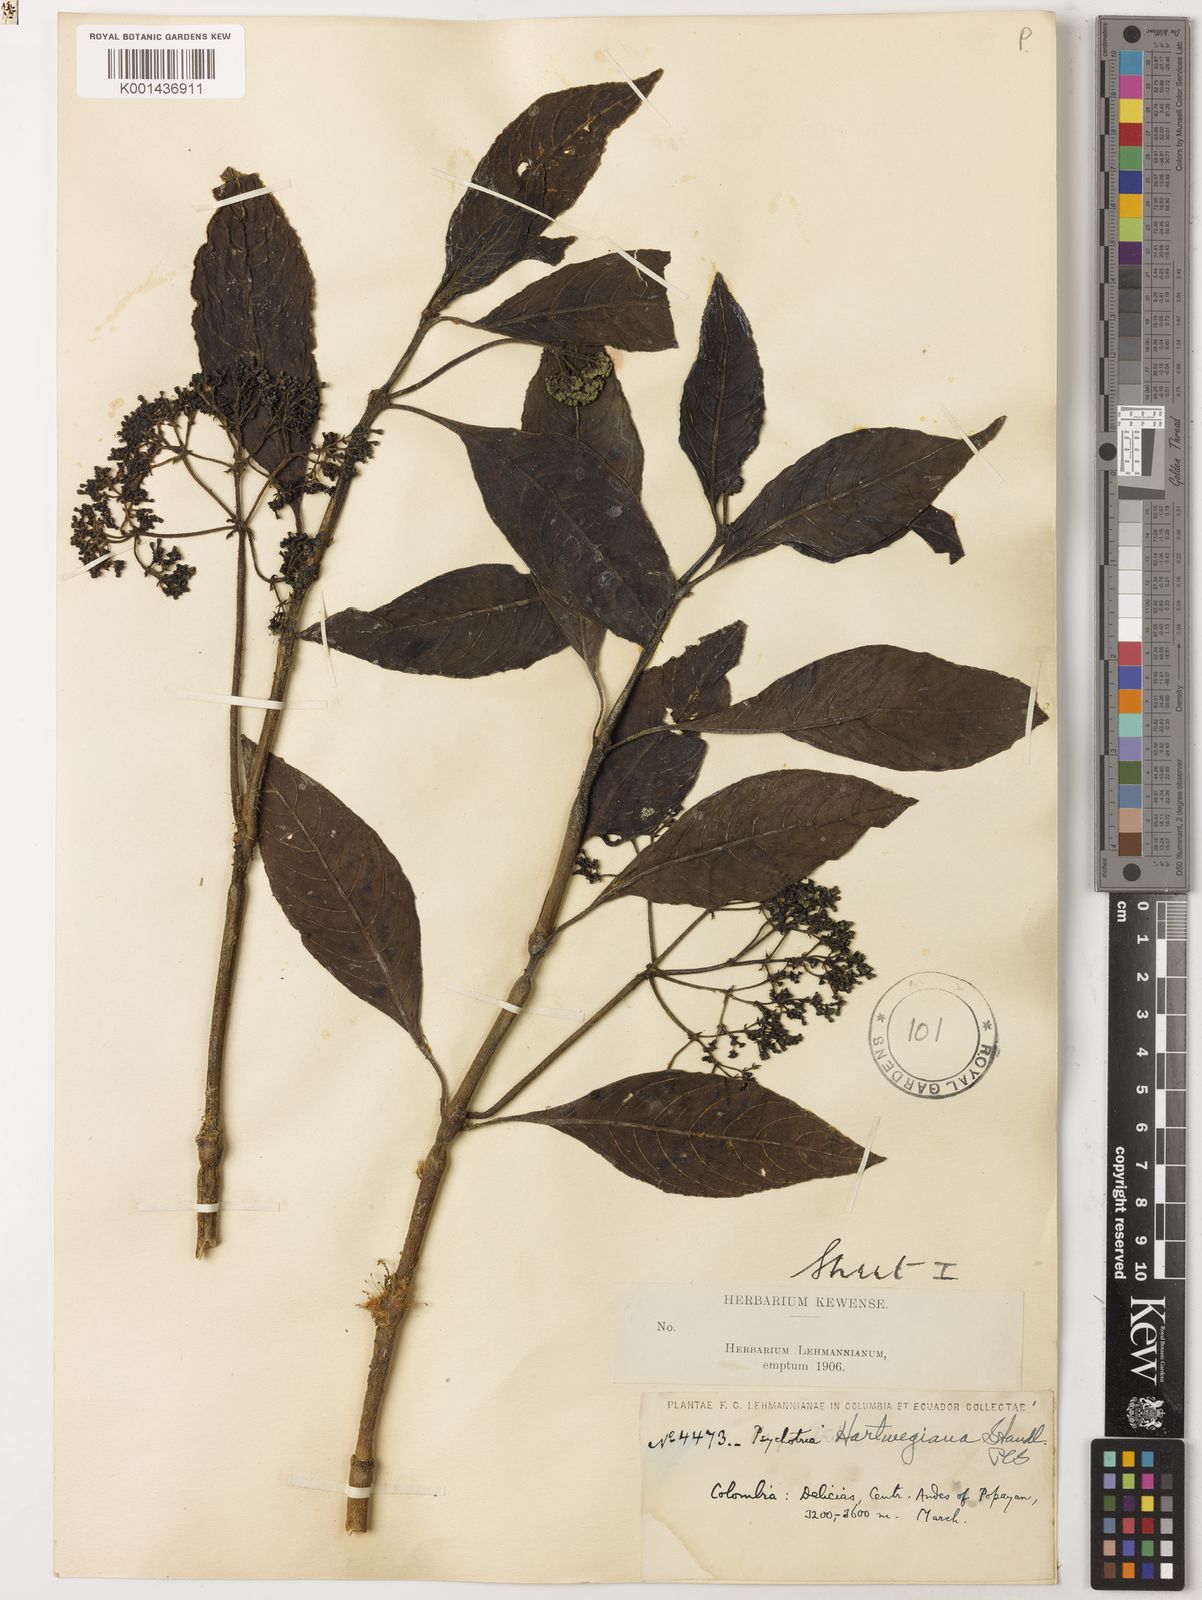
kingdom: Plantae
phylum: Tracheophyta
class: Magnoliopsida
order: Gentianales
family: Rubiaceae
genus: Notopleura
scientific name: Notopleura marginata
